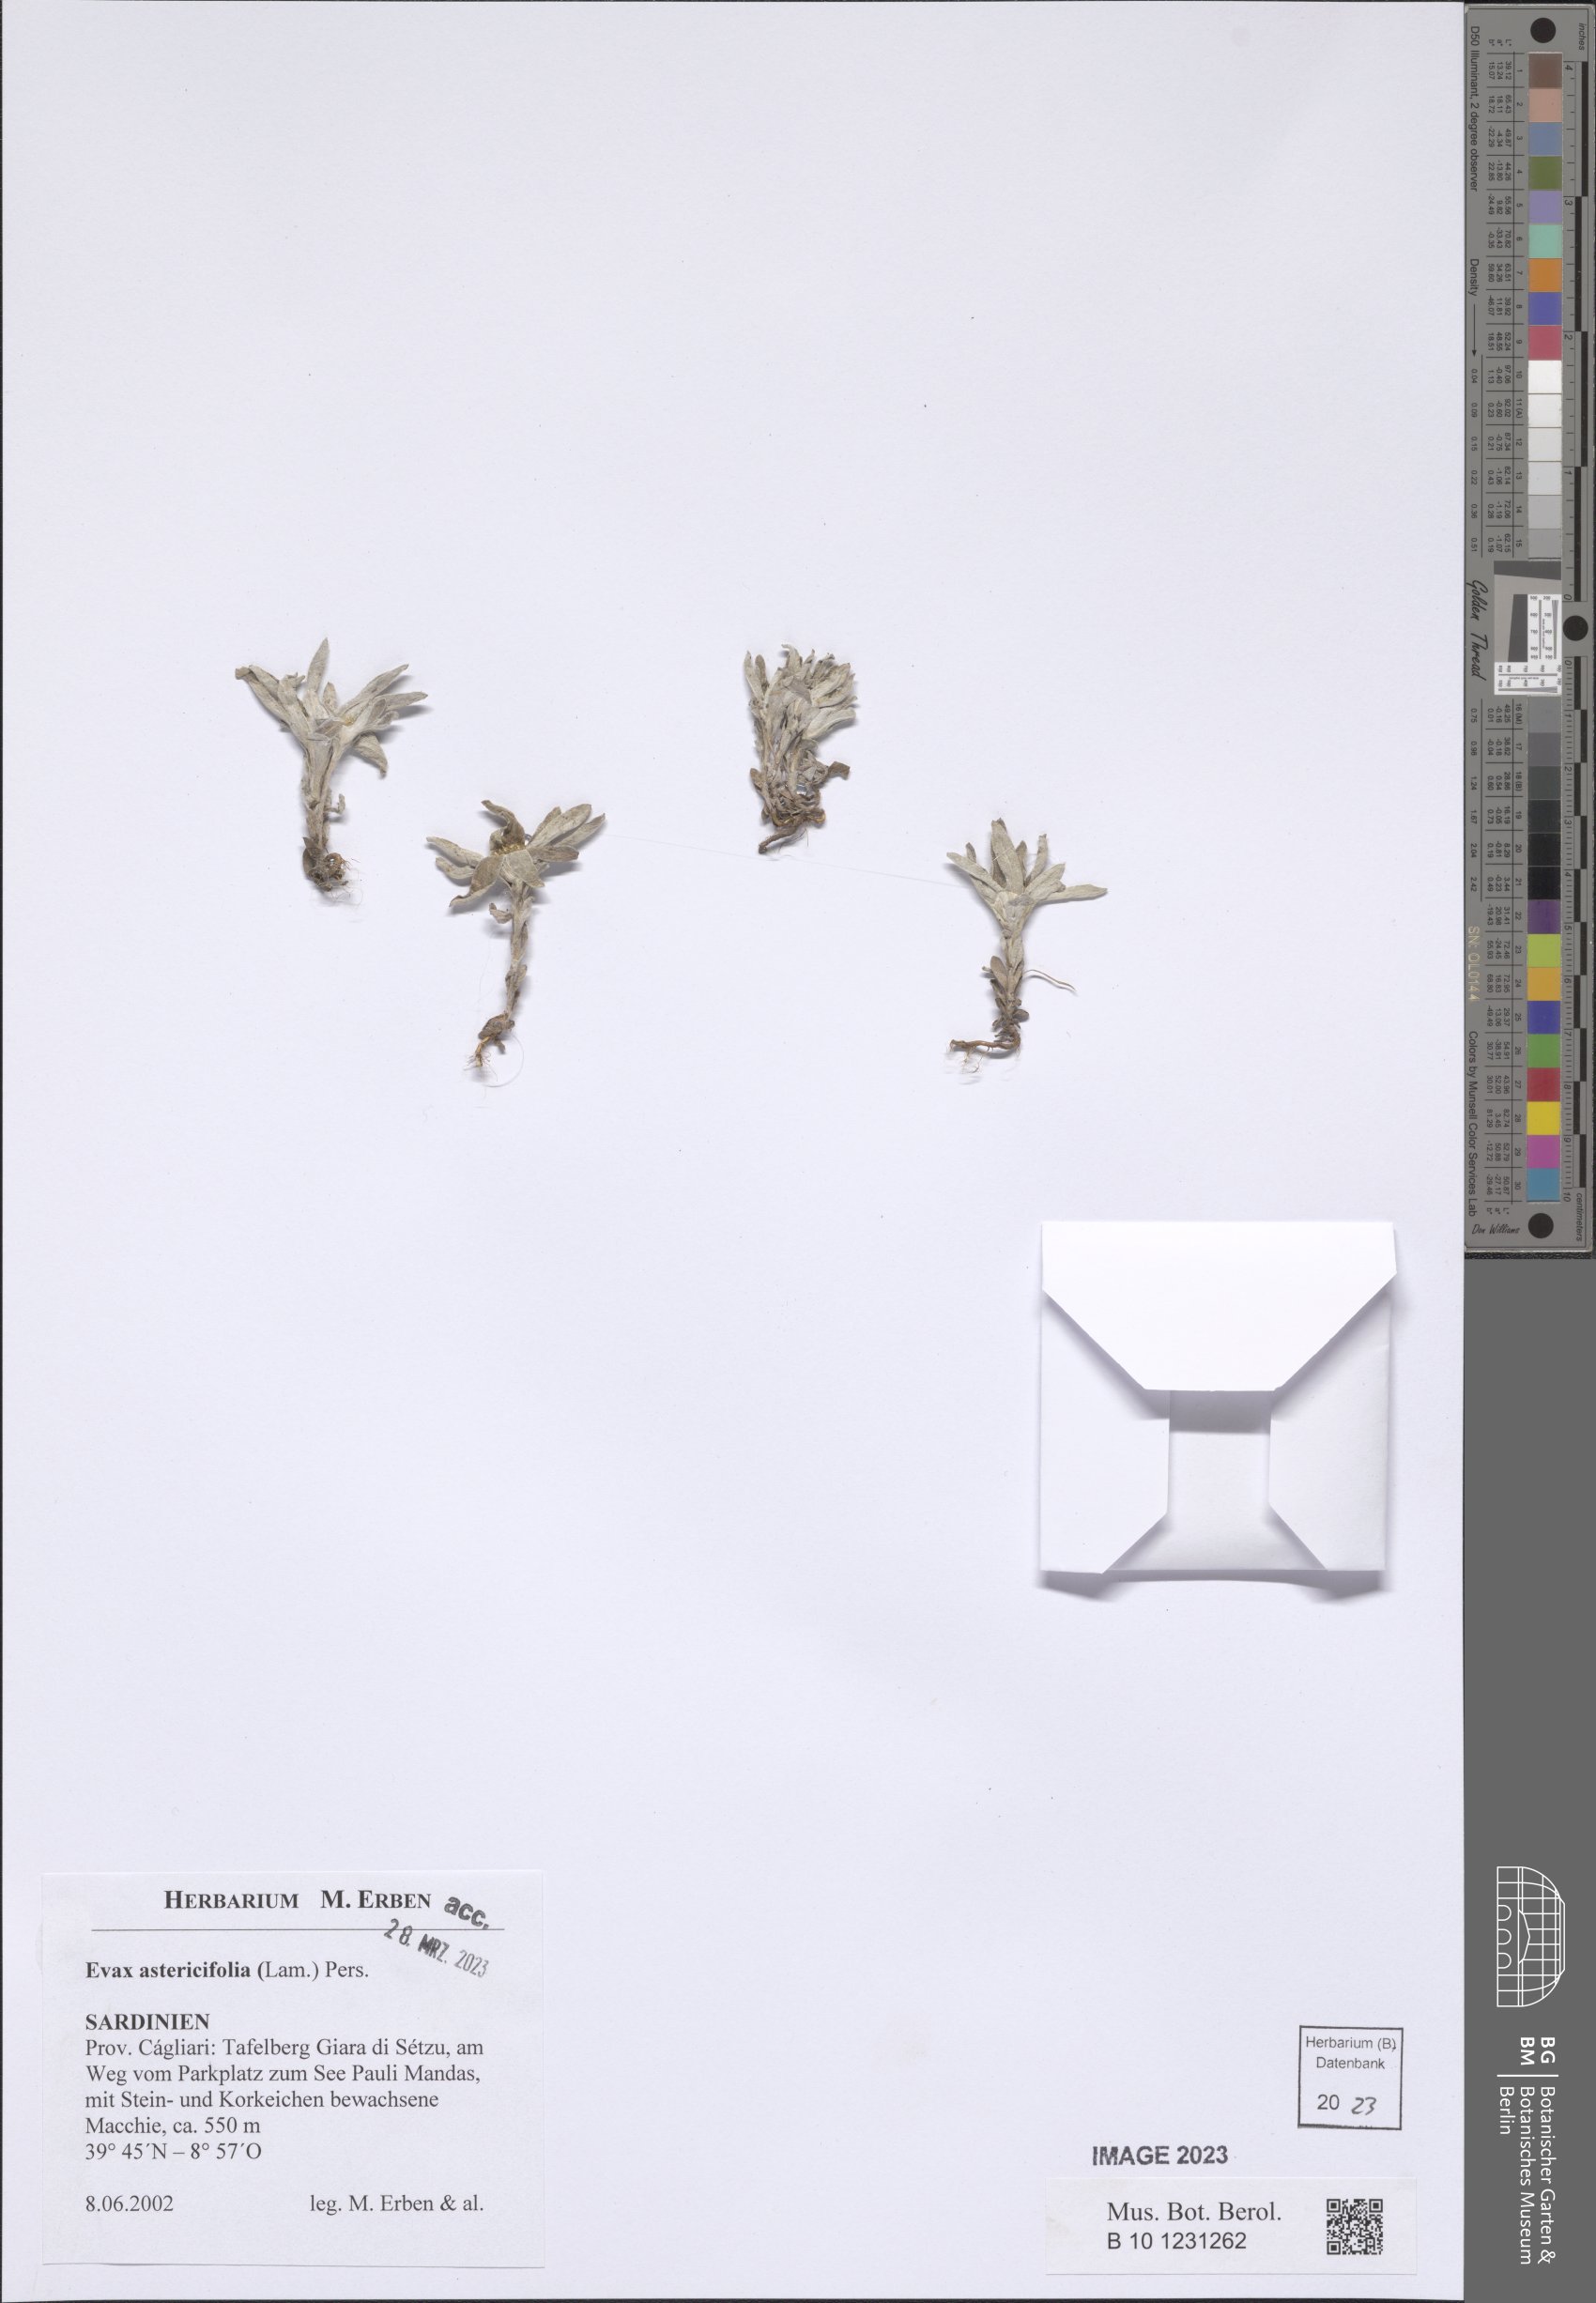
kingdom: Plantae
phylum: Tracheophyta
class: Magnoliopsida
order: Asterales
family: Asteraceae
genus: Filago
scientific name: Filago asterisciflora
